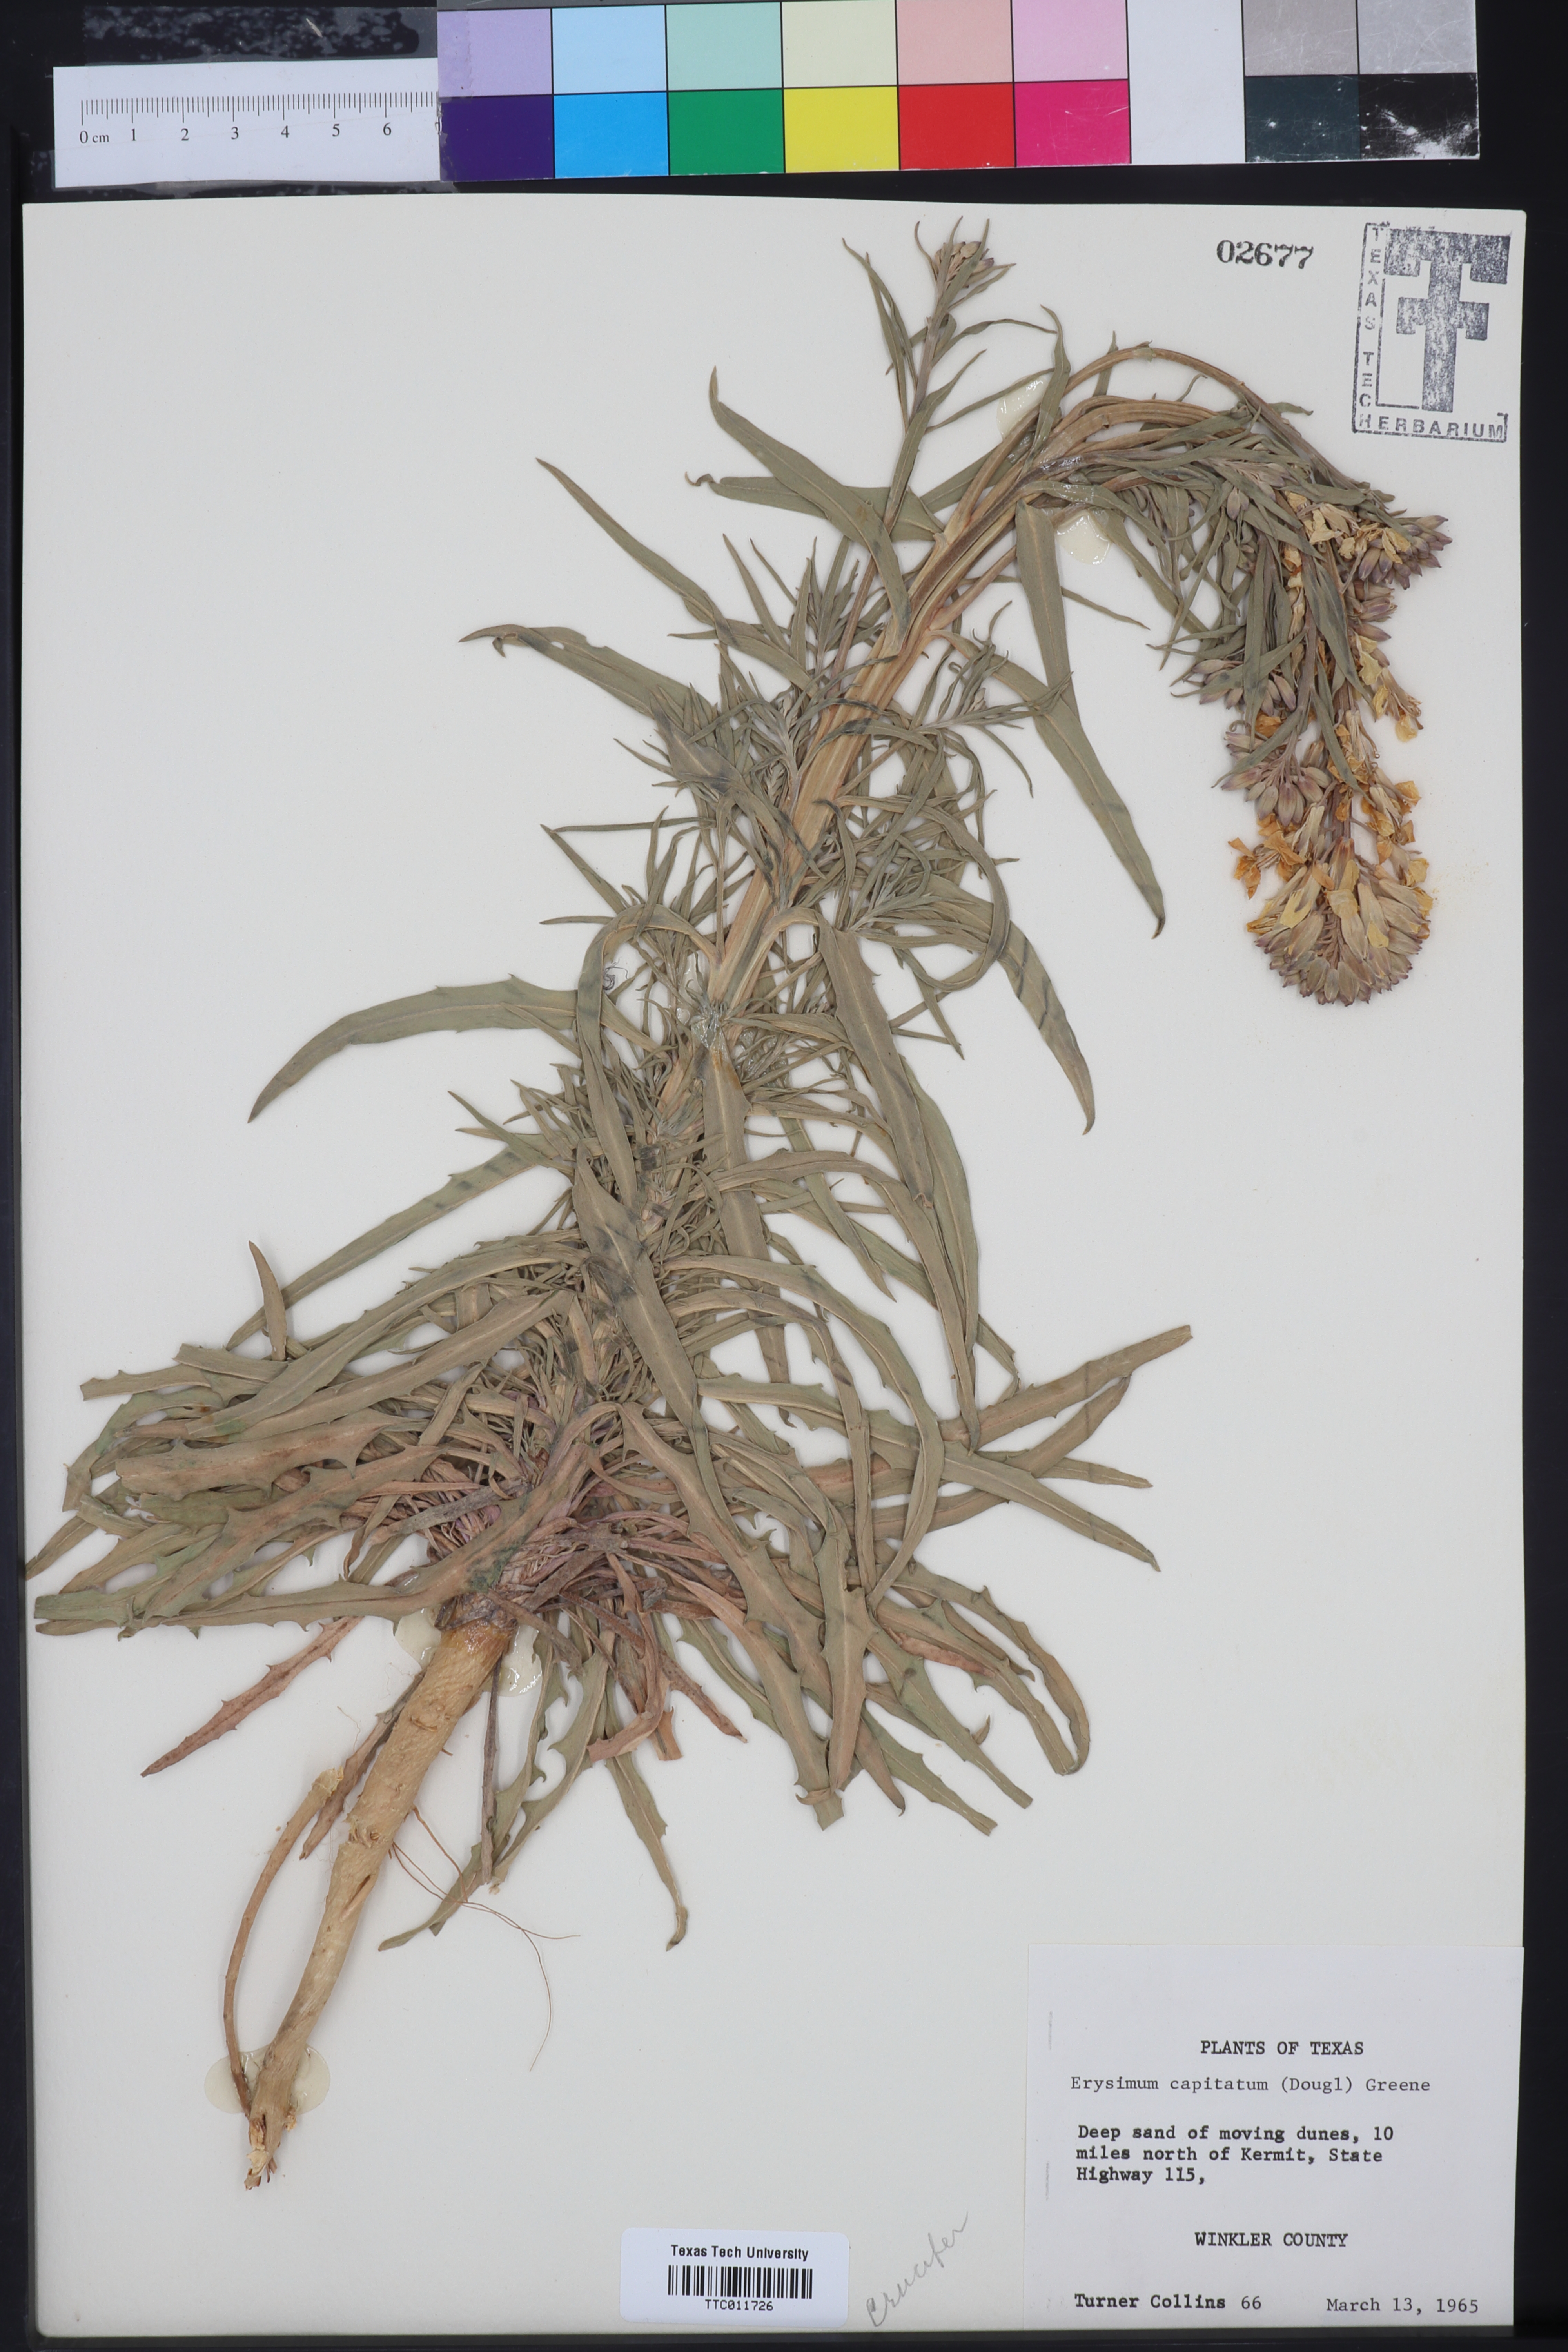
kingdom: Plantae
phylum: Tracheophyta
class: Magnoliopsida
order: Brassicales
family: Brassicaceae
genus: Erysimum
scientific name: Erysimum capitatum
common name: Western wallflower
